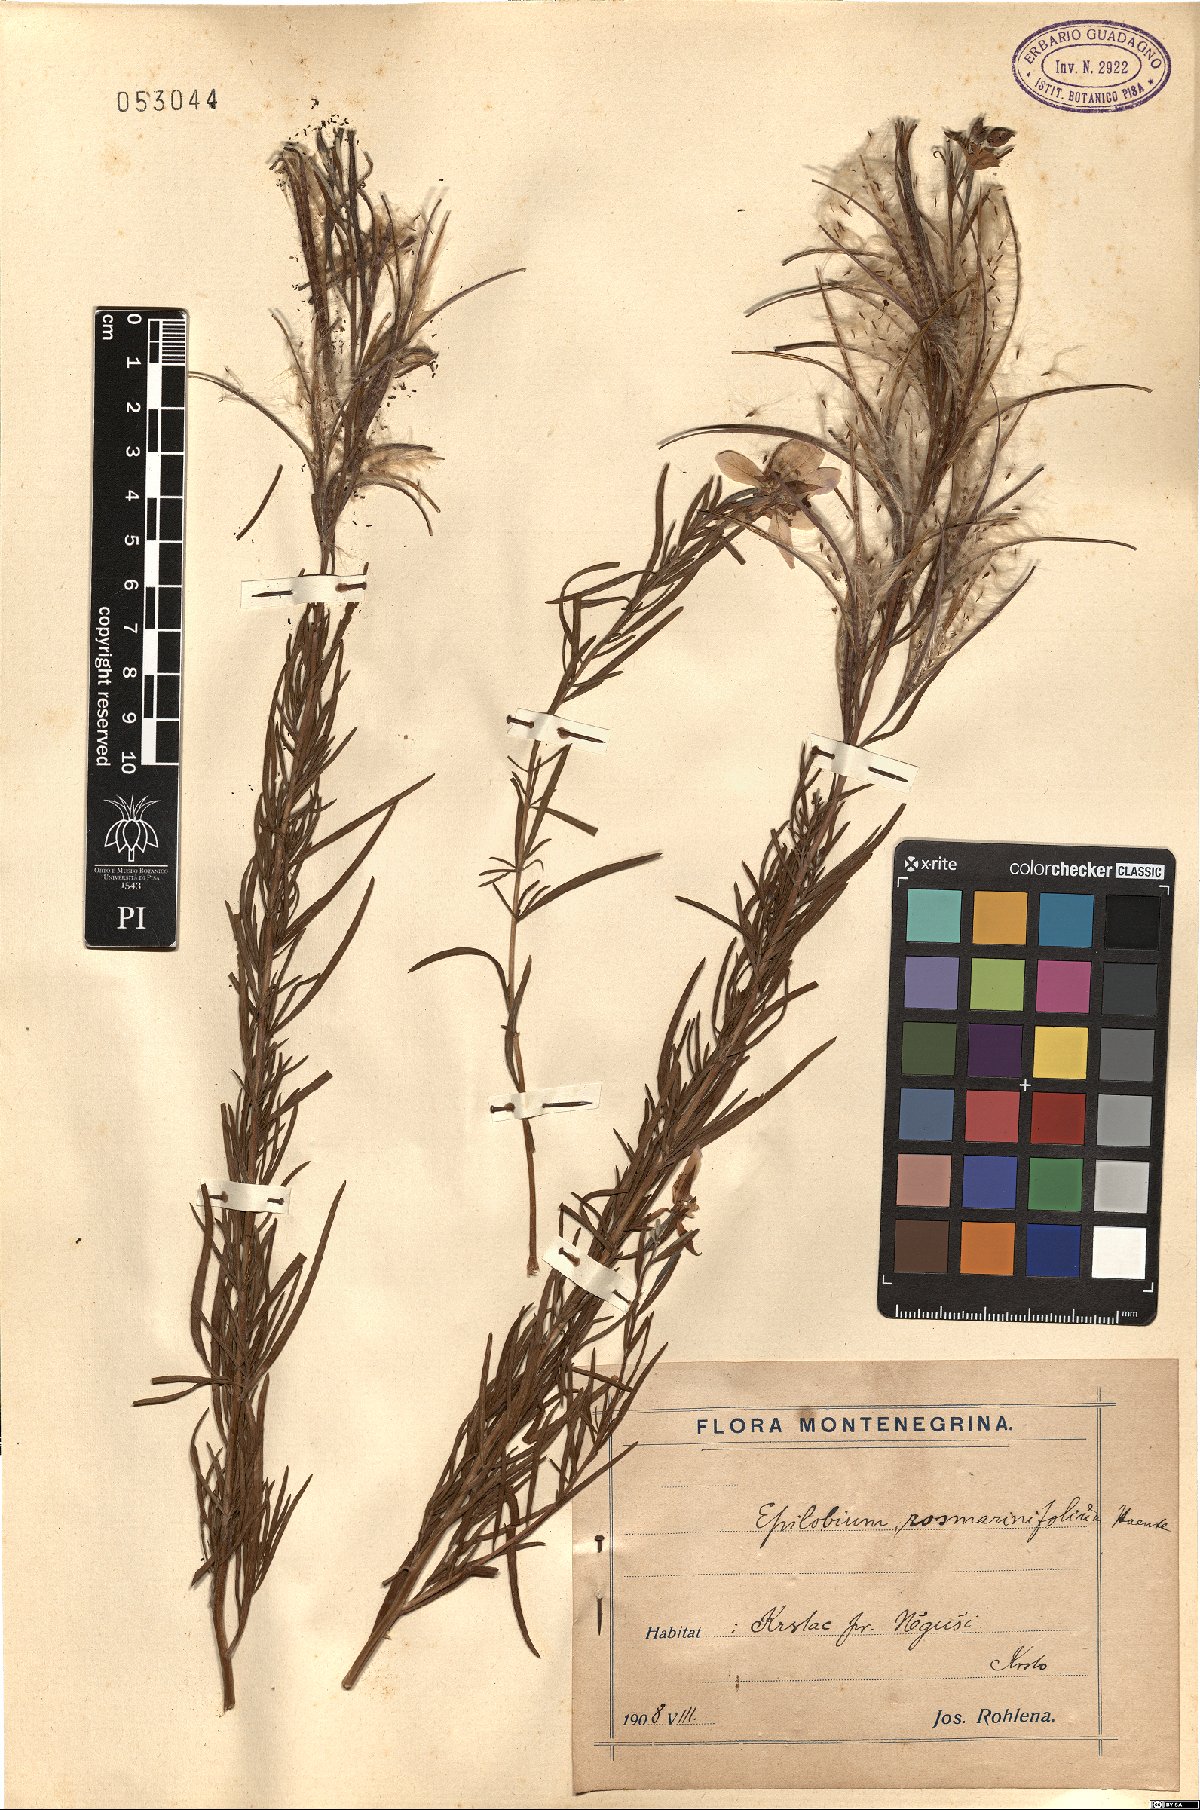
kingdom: Plantae
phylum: Tracheophyta
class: Magnoliopsida
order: Myrtales
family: Onagraceae
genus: Chamaenerion
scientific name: Chamaenerion dodonaei
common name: Rosemary-leaved willowherb
